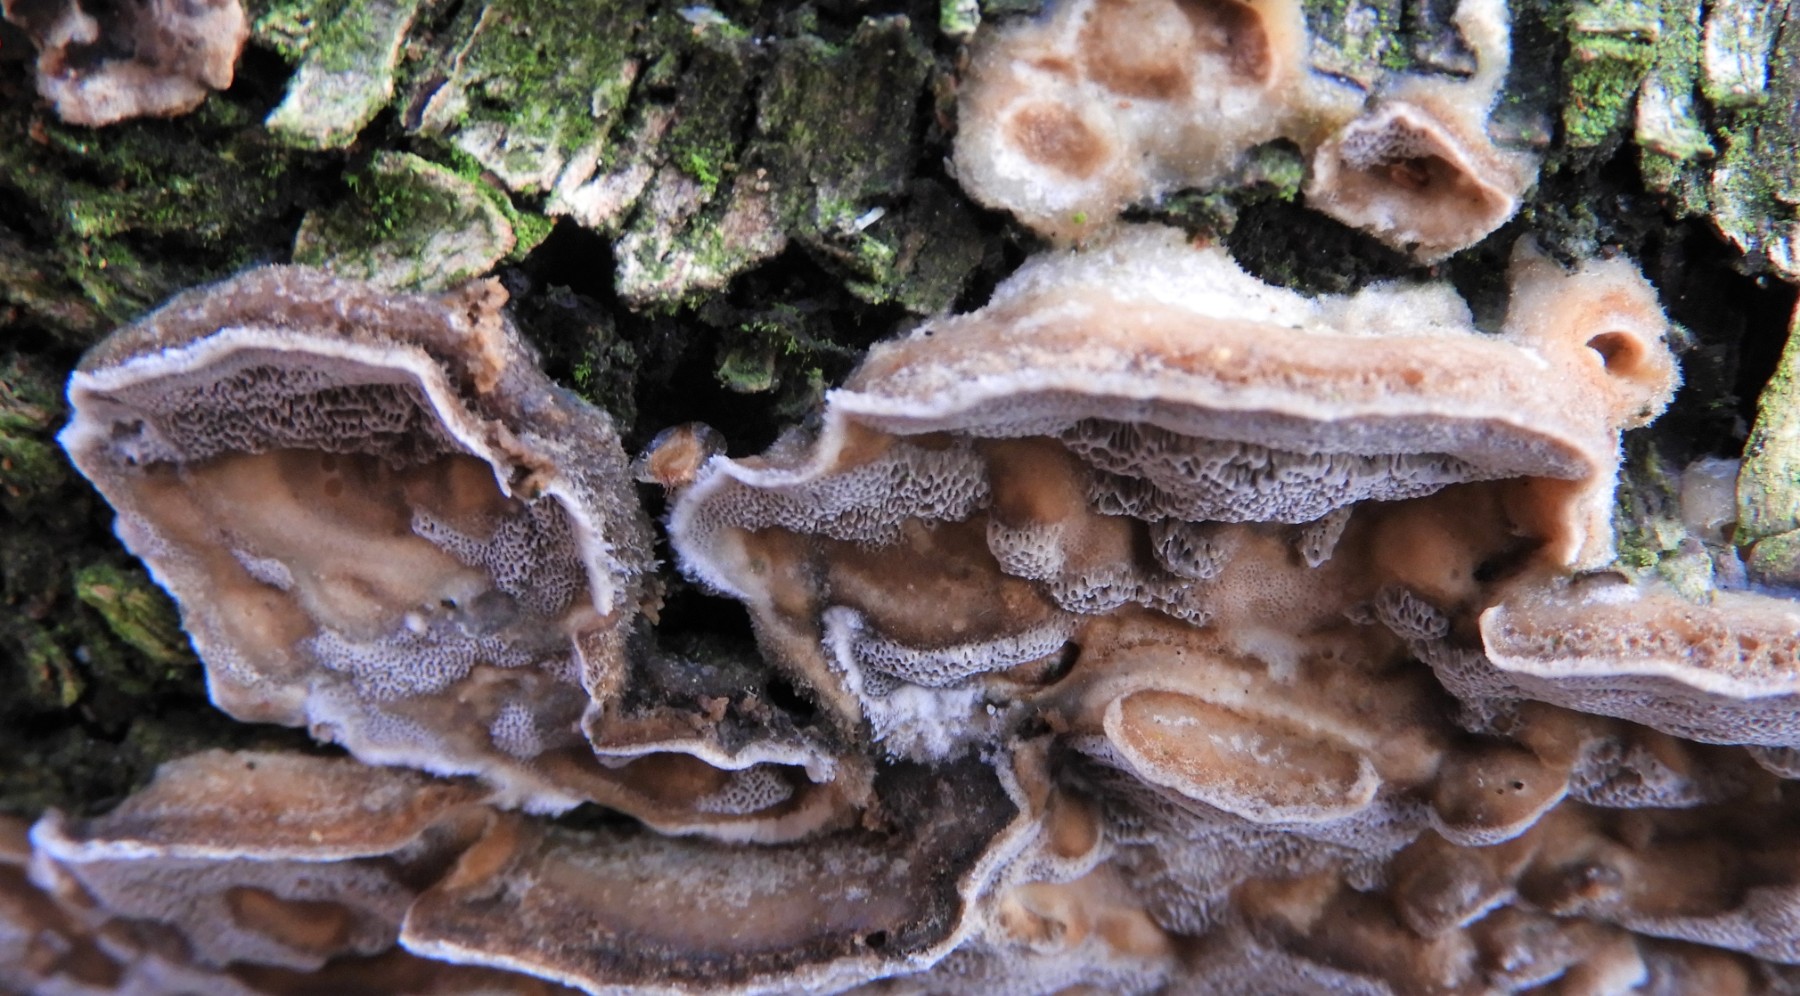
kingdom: Fungi
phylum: Basidiomycota
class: Agaricomycetes
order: Polyporales
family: Phanerochaetaceae
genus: Bjerkandera
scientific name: Bjerkandera adusta
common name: sveden sodporesvamp
